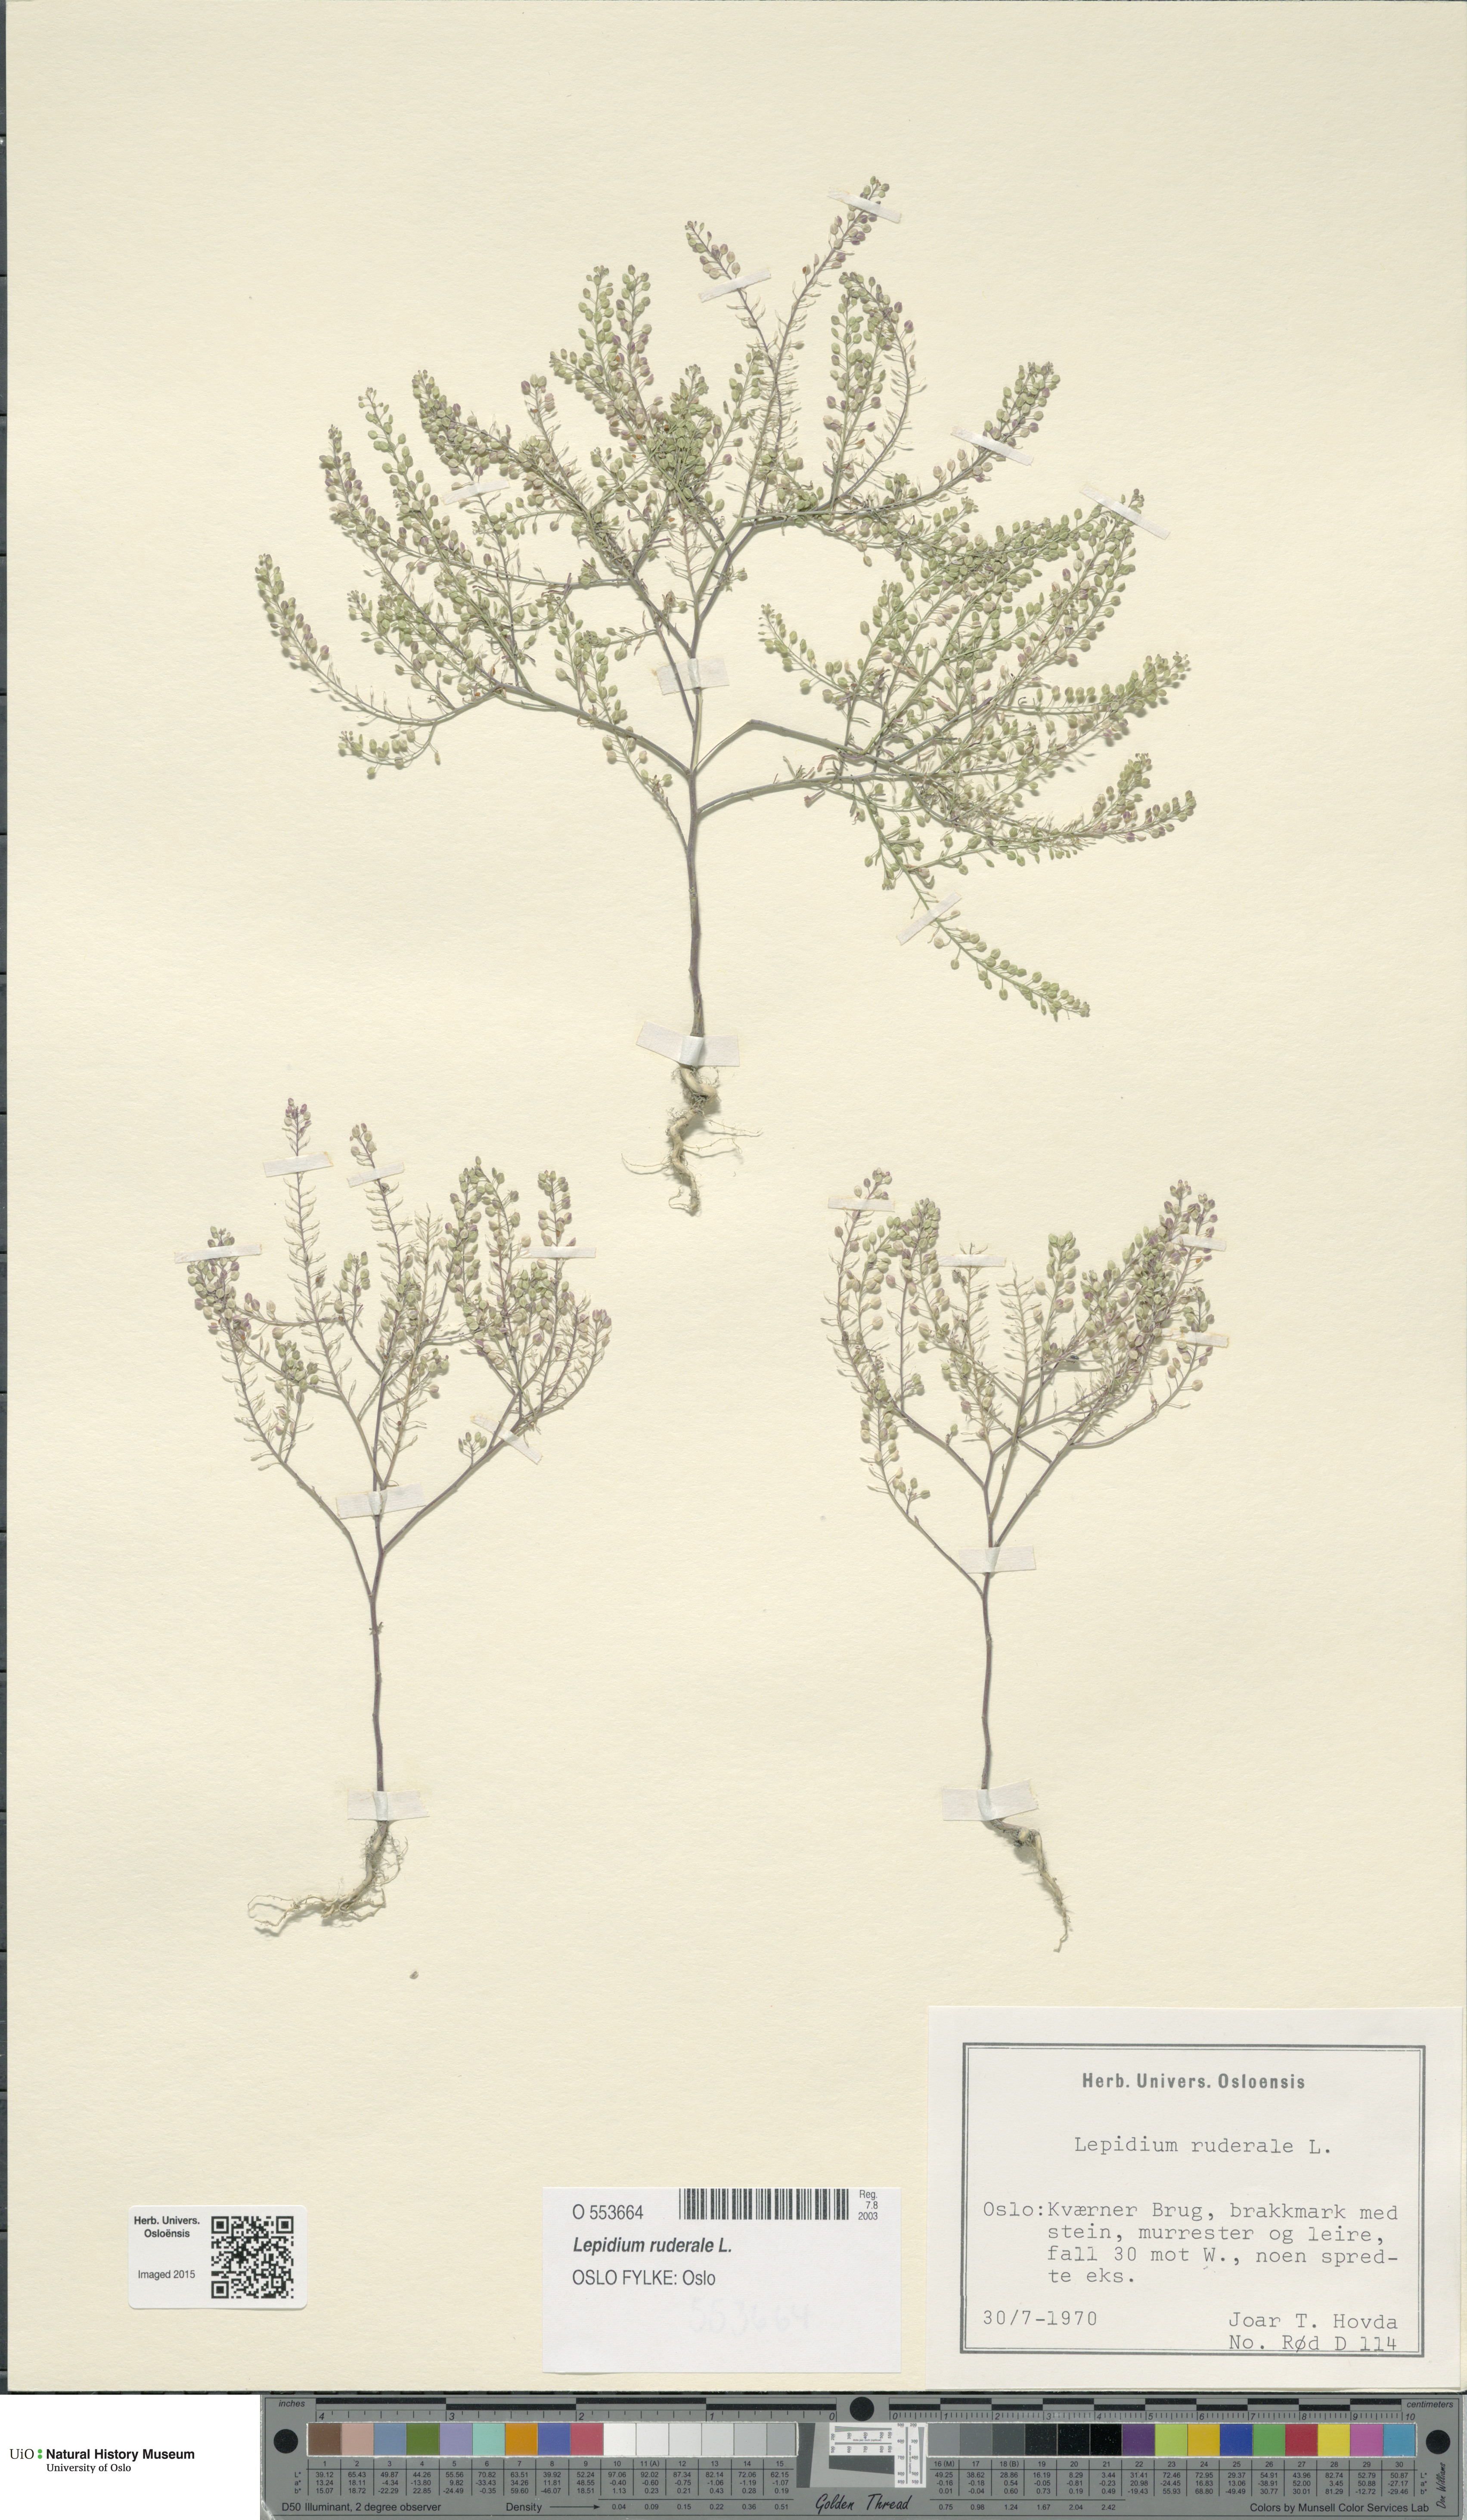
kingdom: Plantae
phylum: Tracheophyta
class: Magnoliopsida
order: Brassicales
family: Brassicaceae
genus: Lepidium
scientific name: Lepidium ruderale
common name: Narrow-leaved pepperwort
